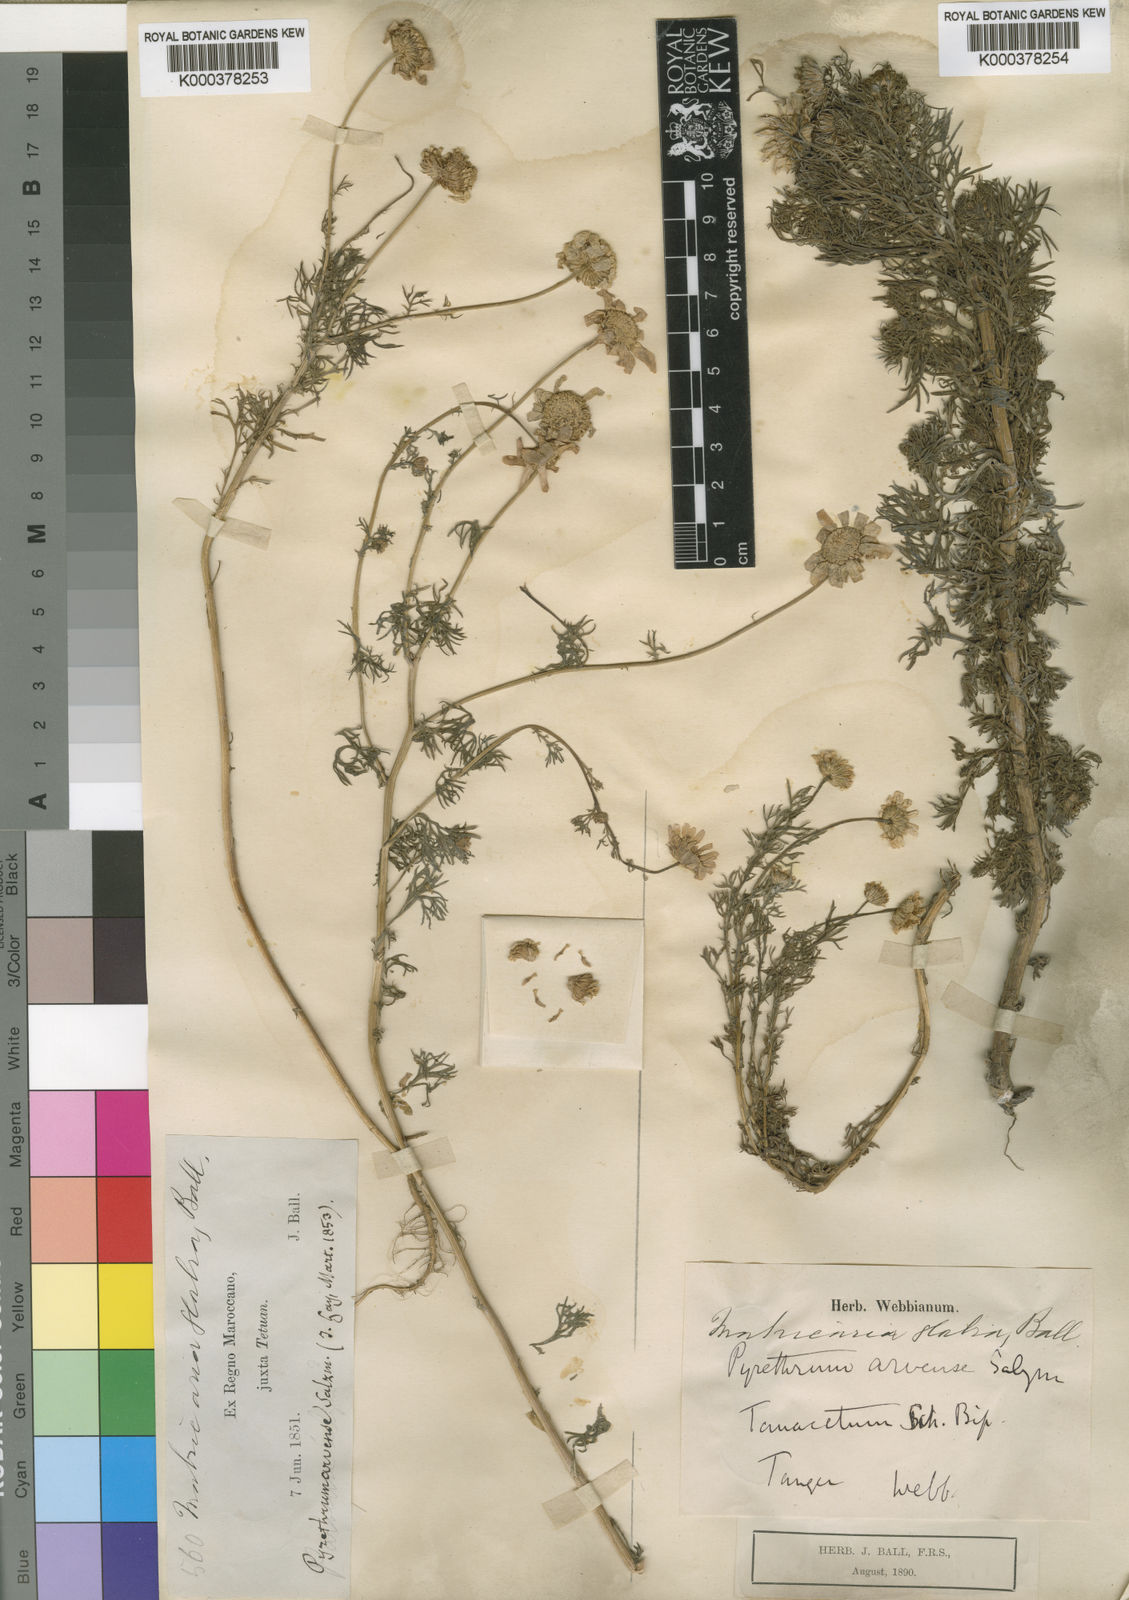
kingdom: Plantae
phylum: Tracheophyta
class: Magnoliopsida
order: Asterales
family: Asteraceae
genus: Gibbaria
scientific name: Gibbaria glabra
